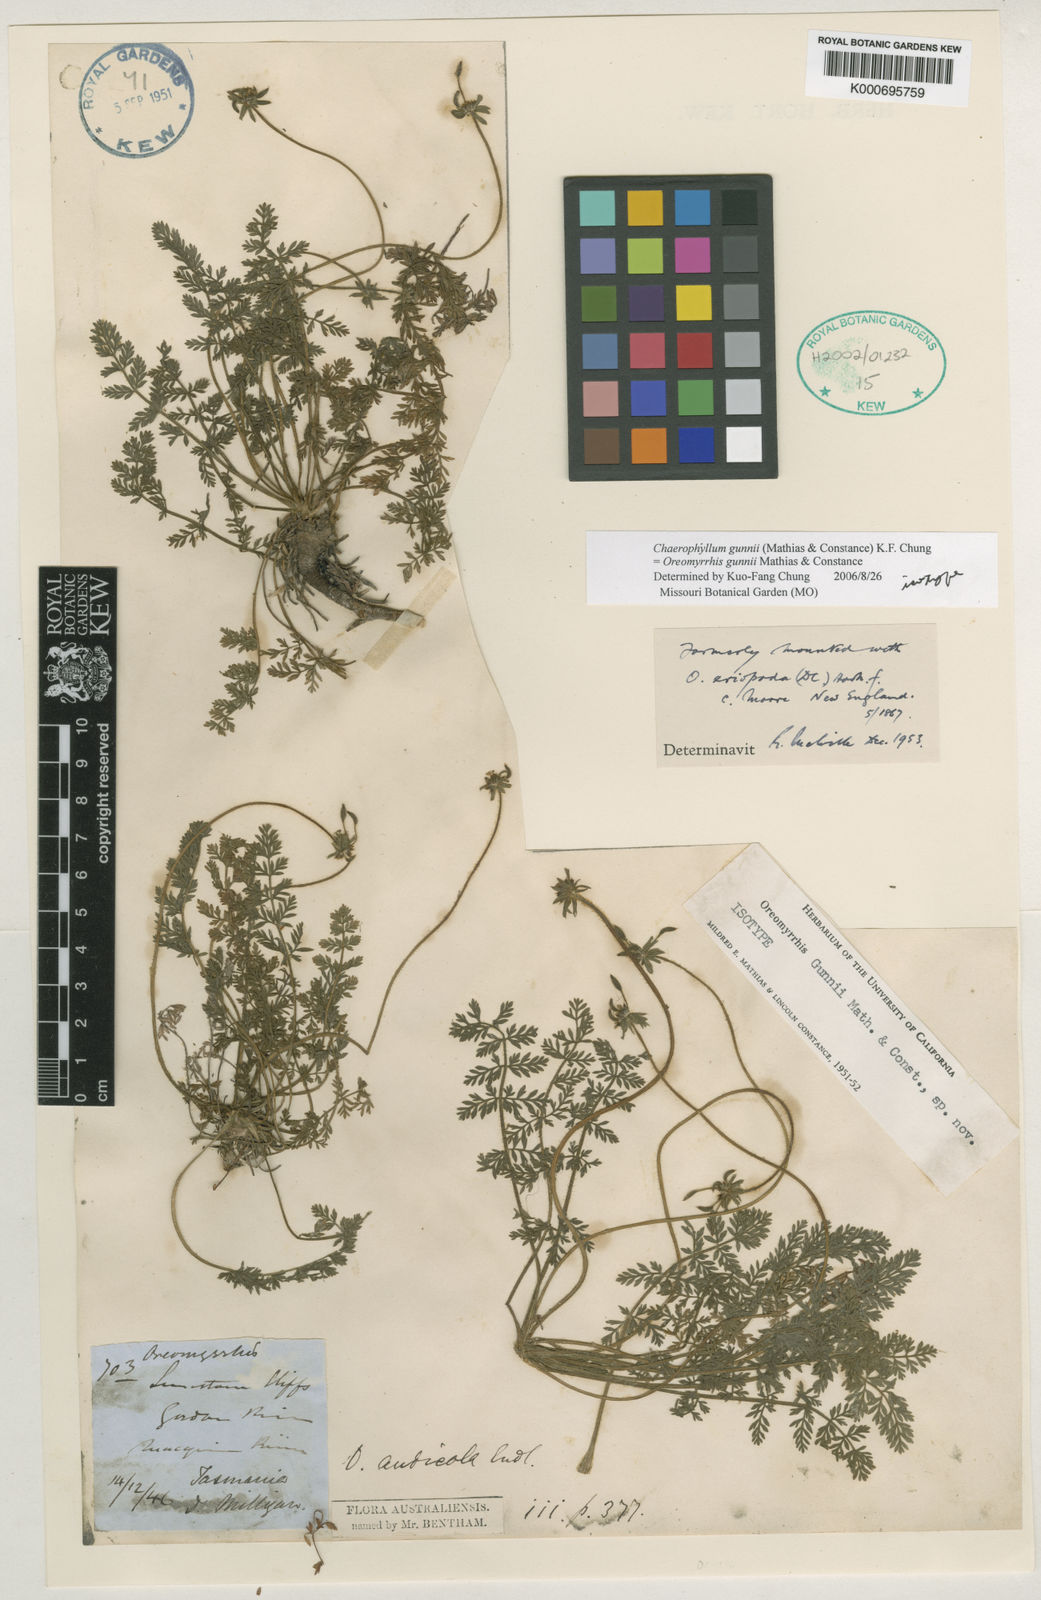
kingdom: Plantae
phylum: Tracheophyta
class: Magnoliopsida
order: Apiales
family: Apiaceae
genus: Chaerophyllum
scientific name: Chaerophyllum gunnii
